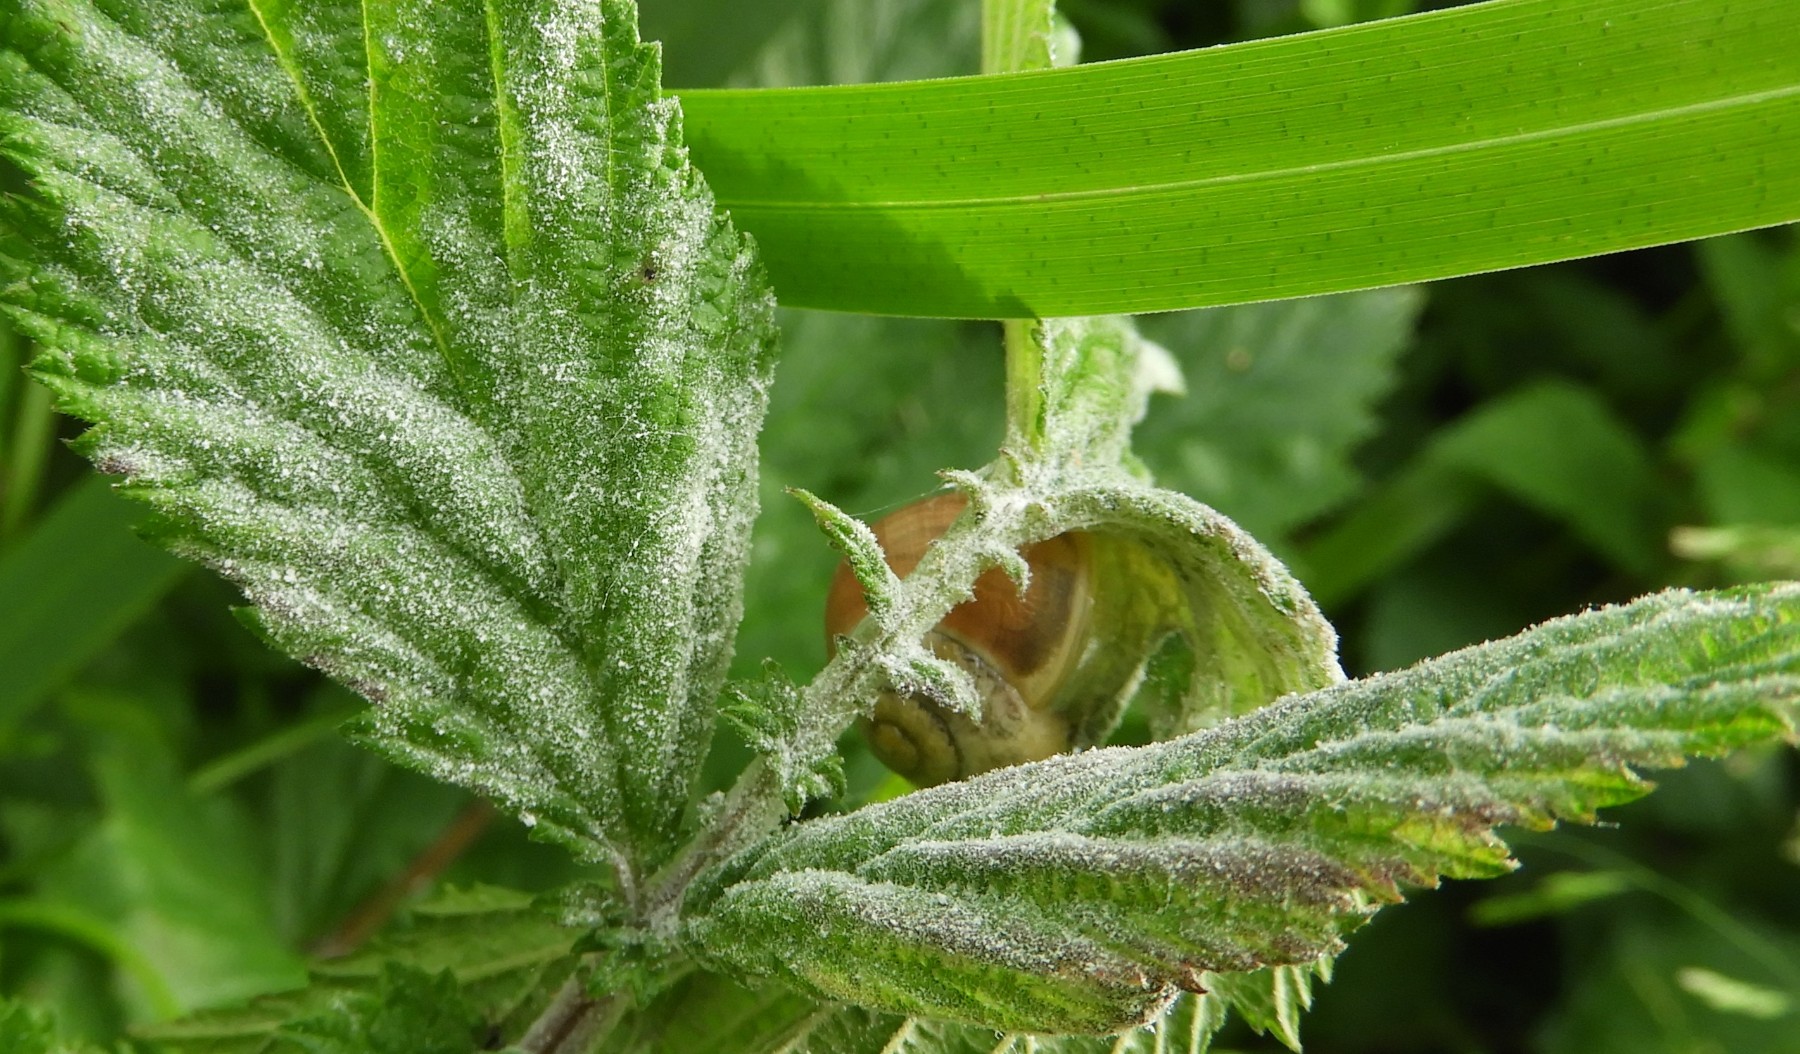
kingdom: Fungi
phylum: Ascomycota
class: Leotiomycetes
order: Helotiales
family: Erysiphaceae
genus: Podosphaera
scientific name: Podosphaera filipendulae
